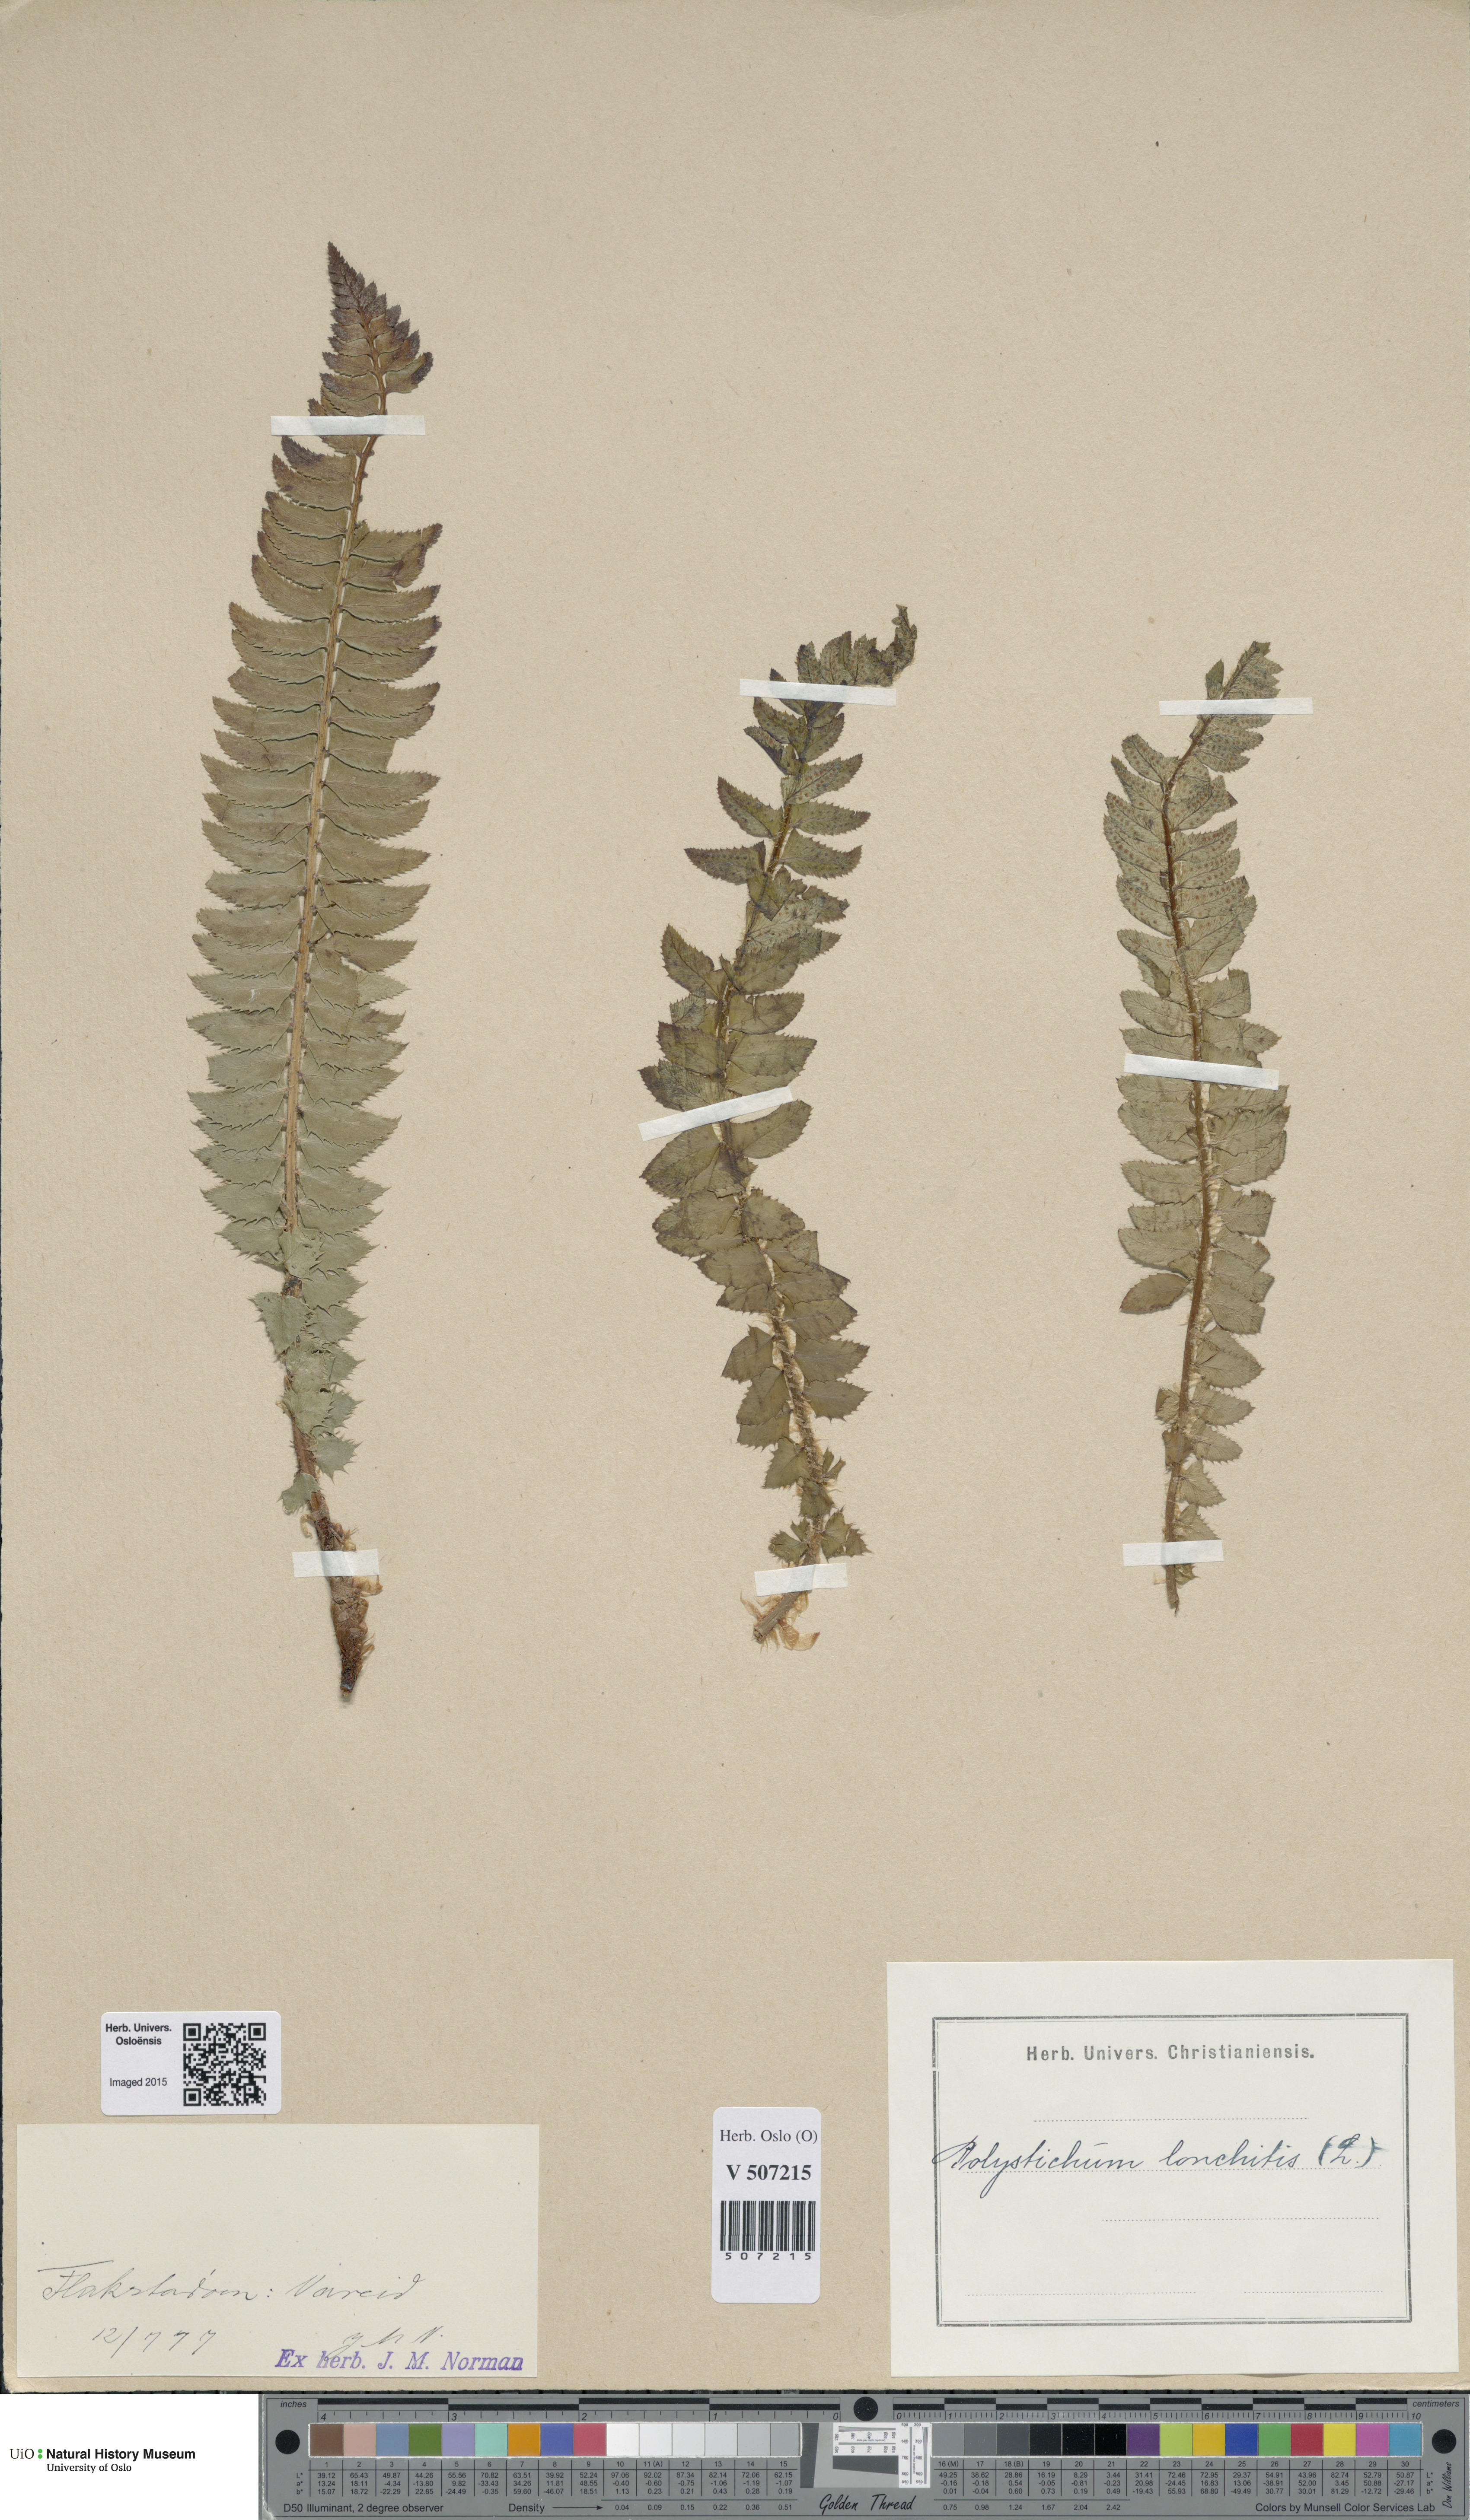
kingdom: Plantae
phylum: Tracheophyta
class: Polypodiopsida
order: Polypodiales
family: Dryopteridaceae
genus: Polystichum
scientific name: Polystichum lonchitis
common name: Holly fern
